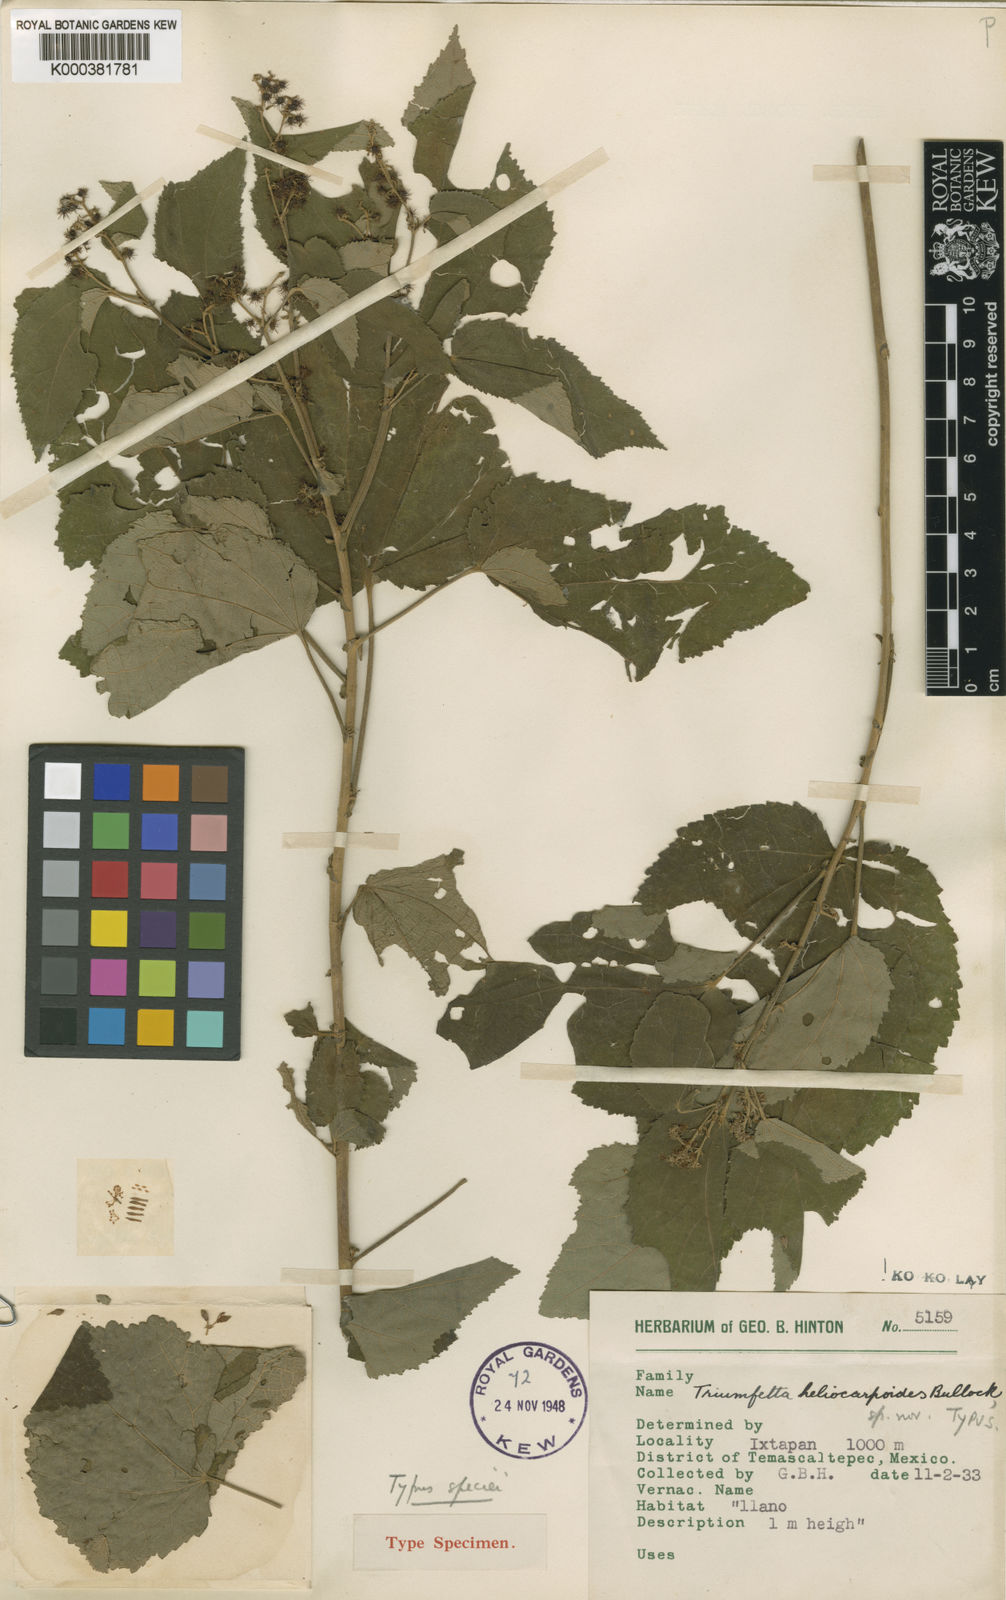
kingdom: Plantae
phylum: Tracheophyta
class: Magnoliopsida
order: Malvales
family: Malvaceae
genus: Triumfetta
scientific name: Triumfetta heliocarpoides
